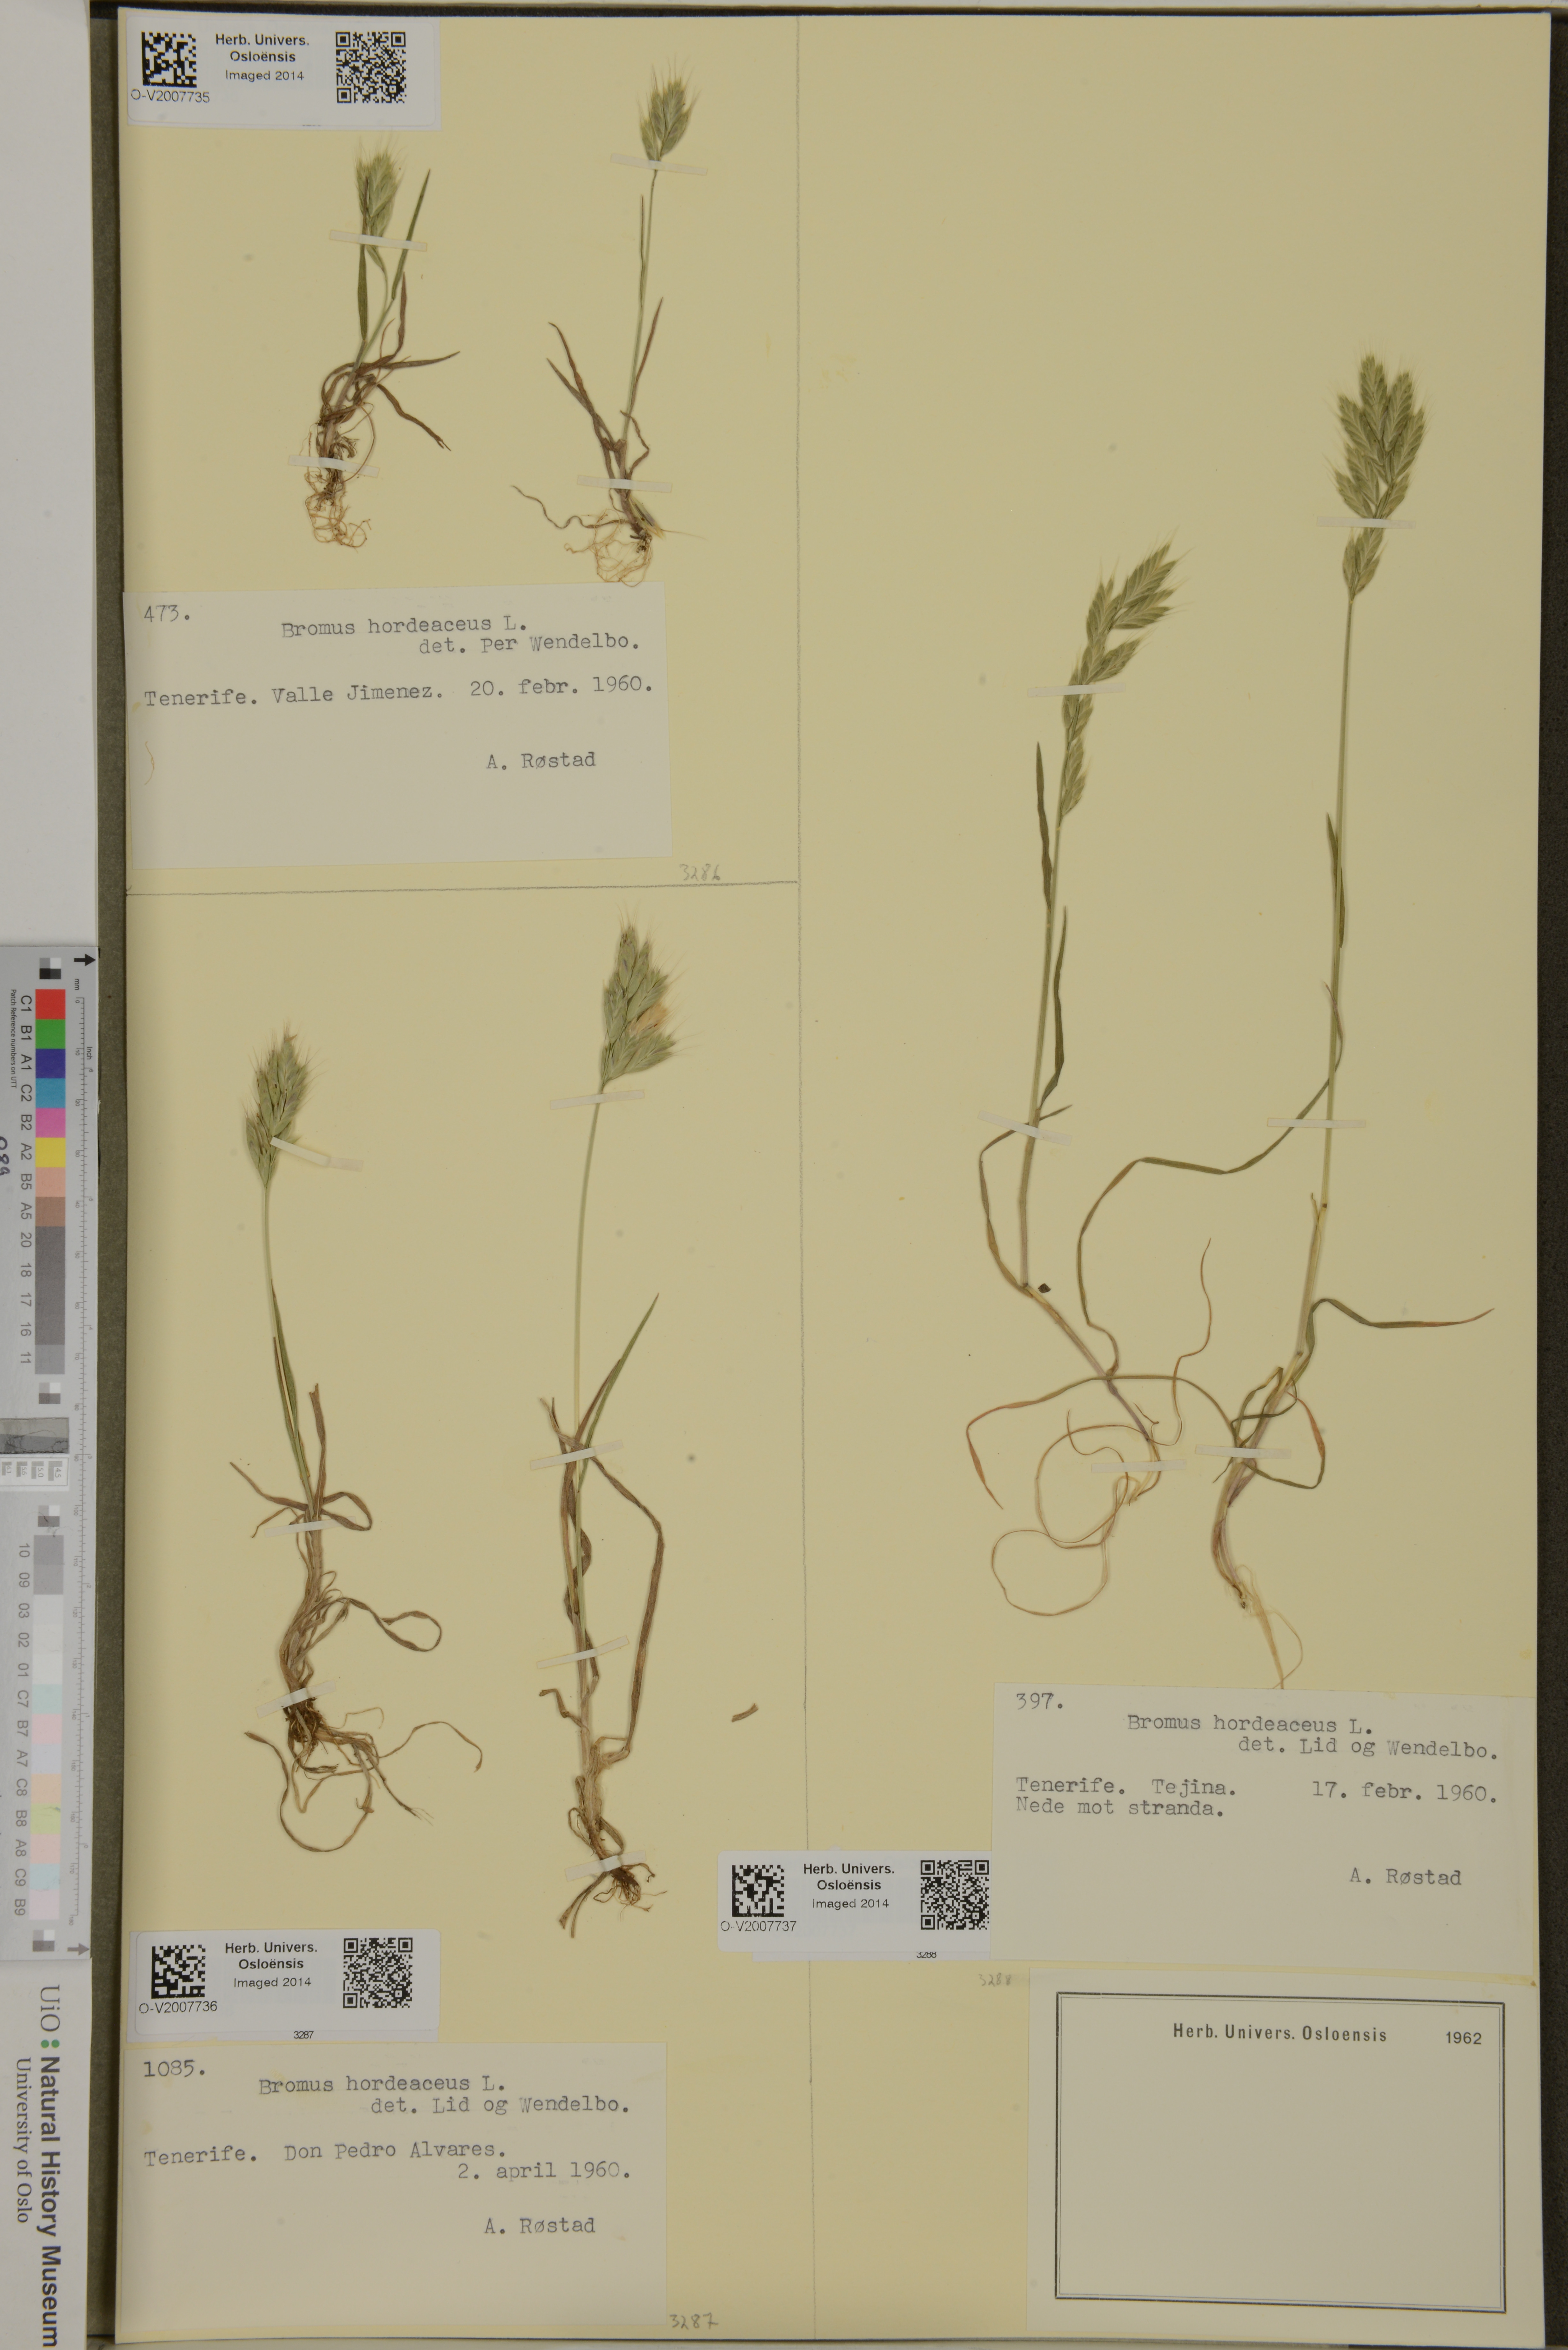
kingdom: Plantae
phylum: Tracheophyta
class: Liliopsida
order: Poales
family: Poaceae
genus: Bromus
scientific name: Bromus hordeaceus
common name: Soft brome
